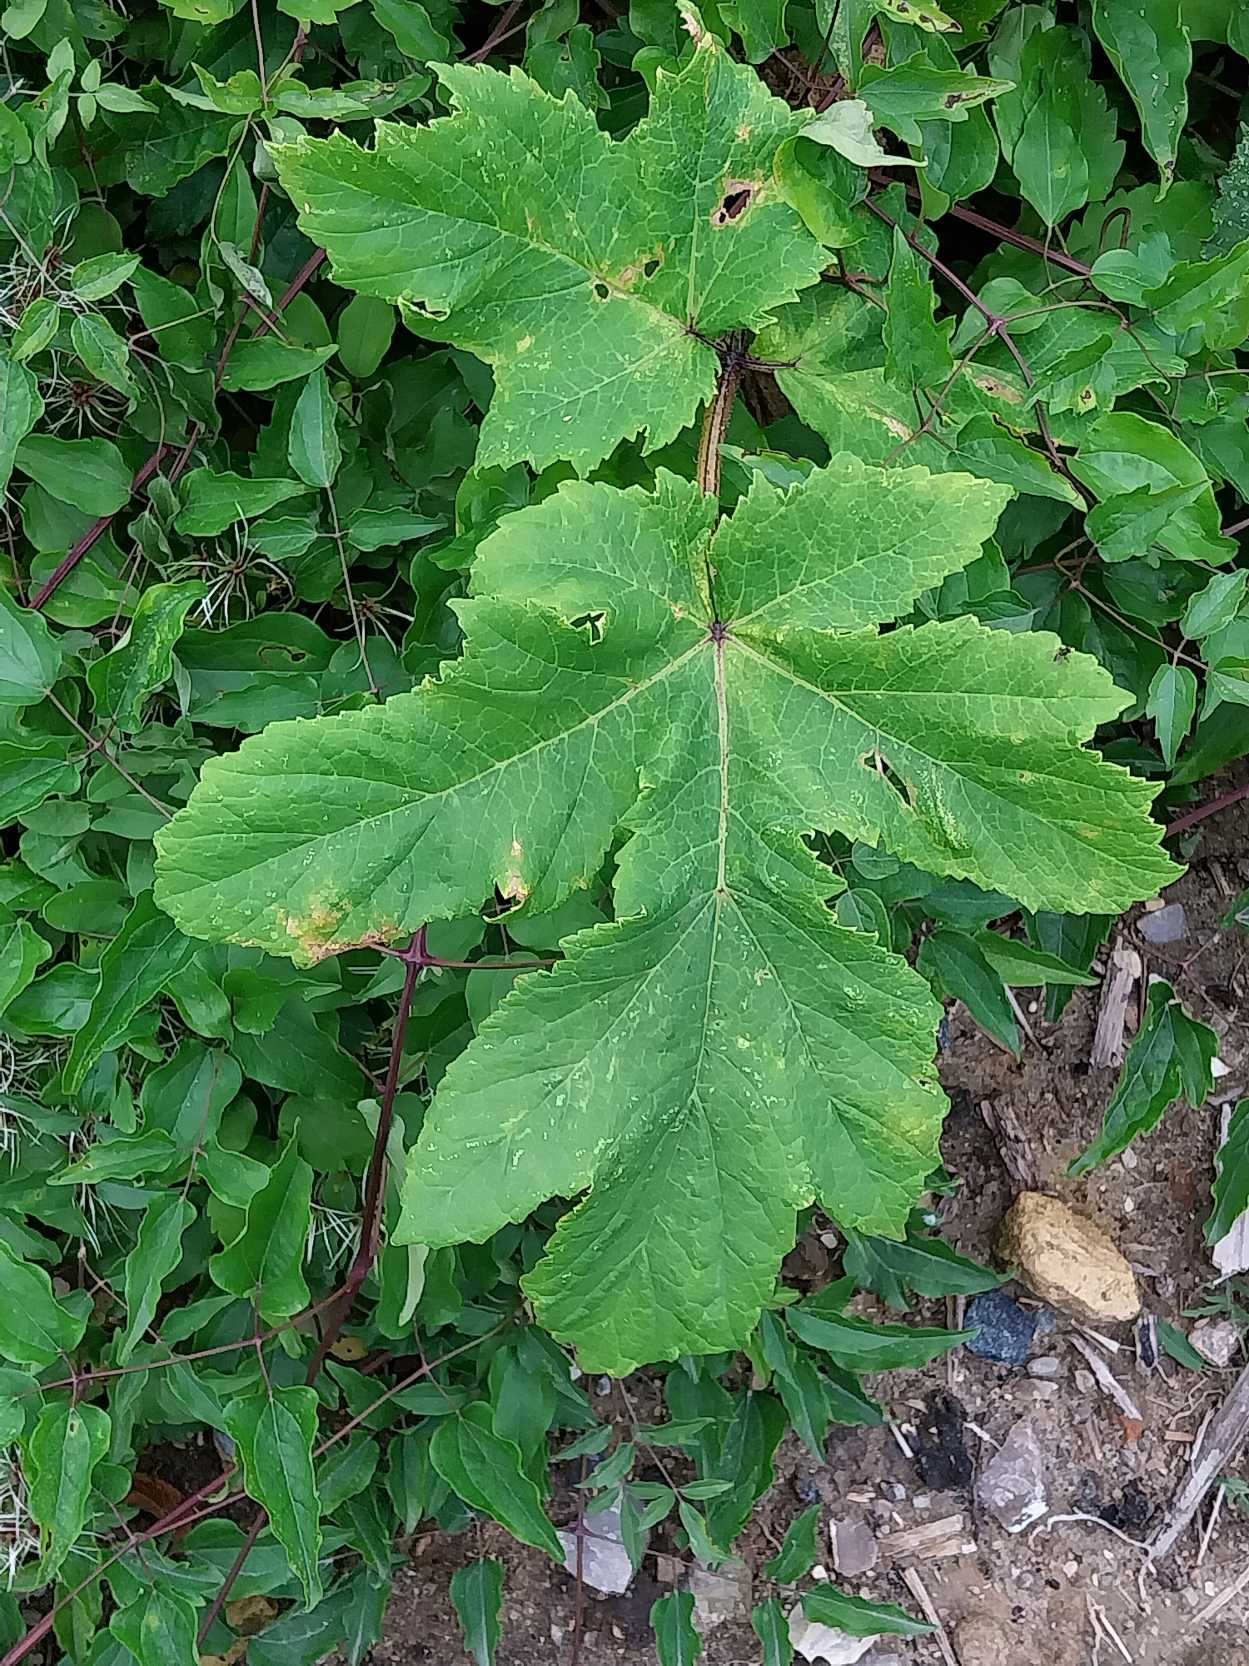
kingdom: Plantae
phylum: Tracheophyta
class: Magnoliopsida
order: Apiales
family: Apiaceae
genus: Heracleum
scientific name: Heracleum mantegazzianum
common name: Kæmpe-bjørneklo
